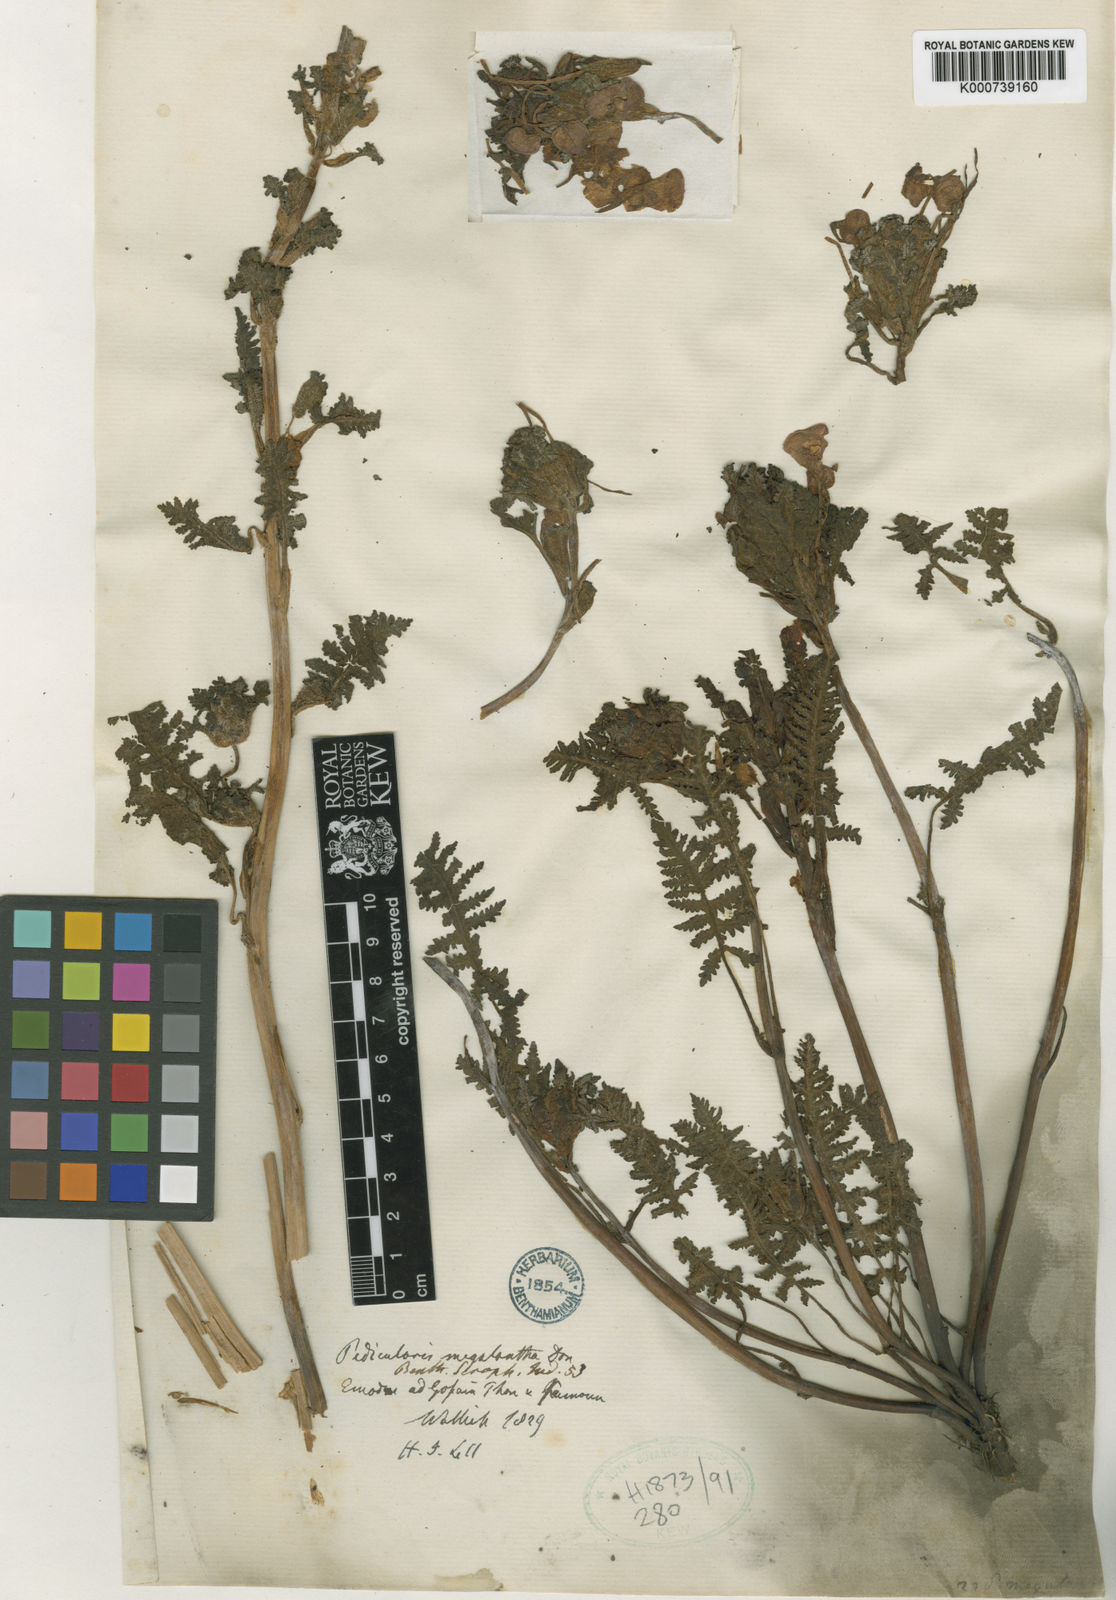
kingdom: Plantae
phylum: Tracheophyta
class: Magnoliopsida
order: Lamiales
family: Orobanchaceae
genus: Pedicularis
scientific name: Pedicularis megalantha
